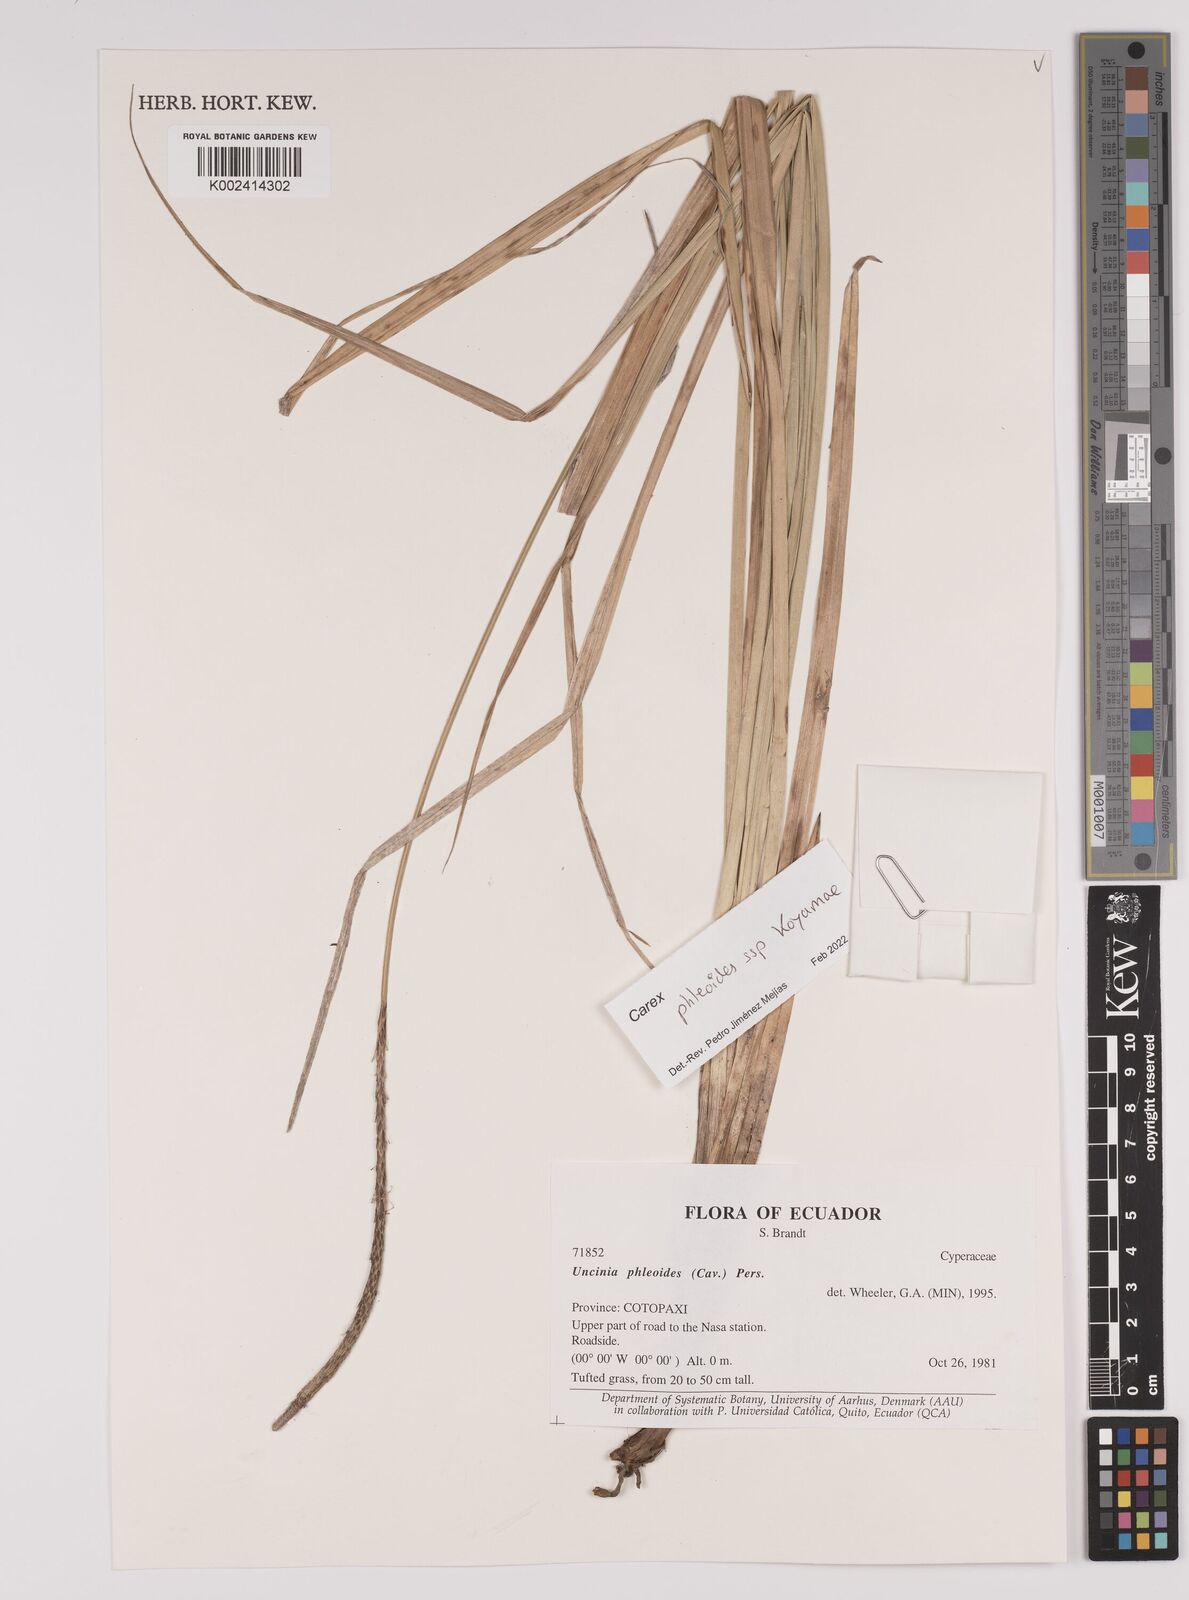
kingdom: Plantae
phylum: Tracheophyta
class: Liliopsida
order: Poales
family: Cyperaceae
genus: Carex
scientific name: Carex phleoides
